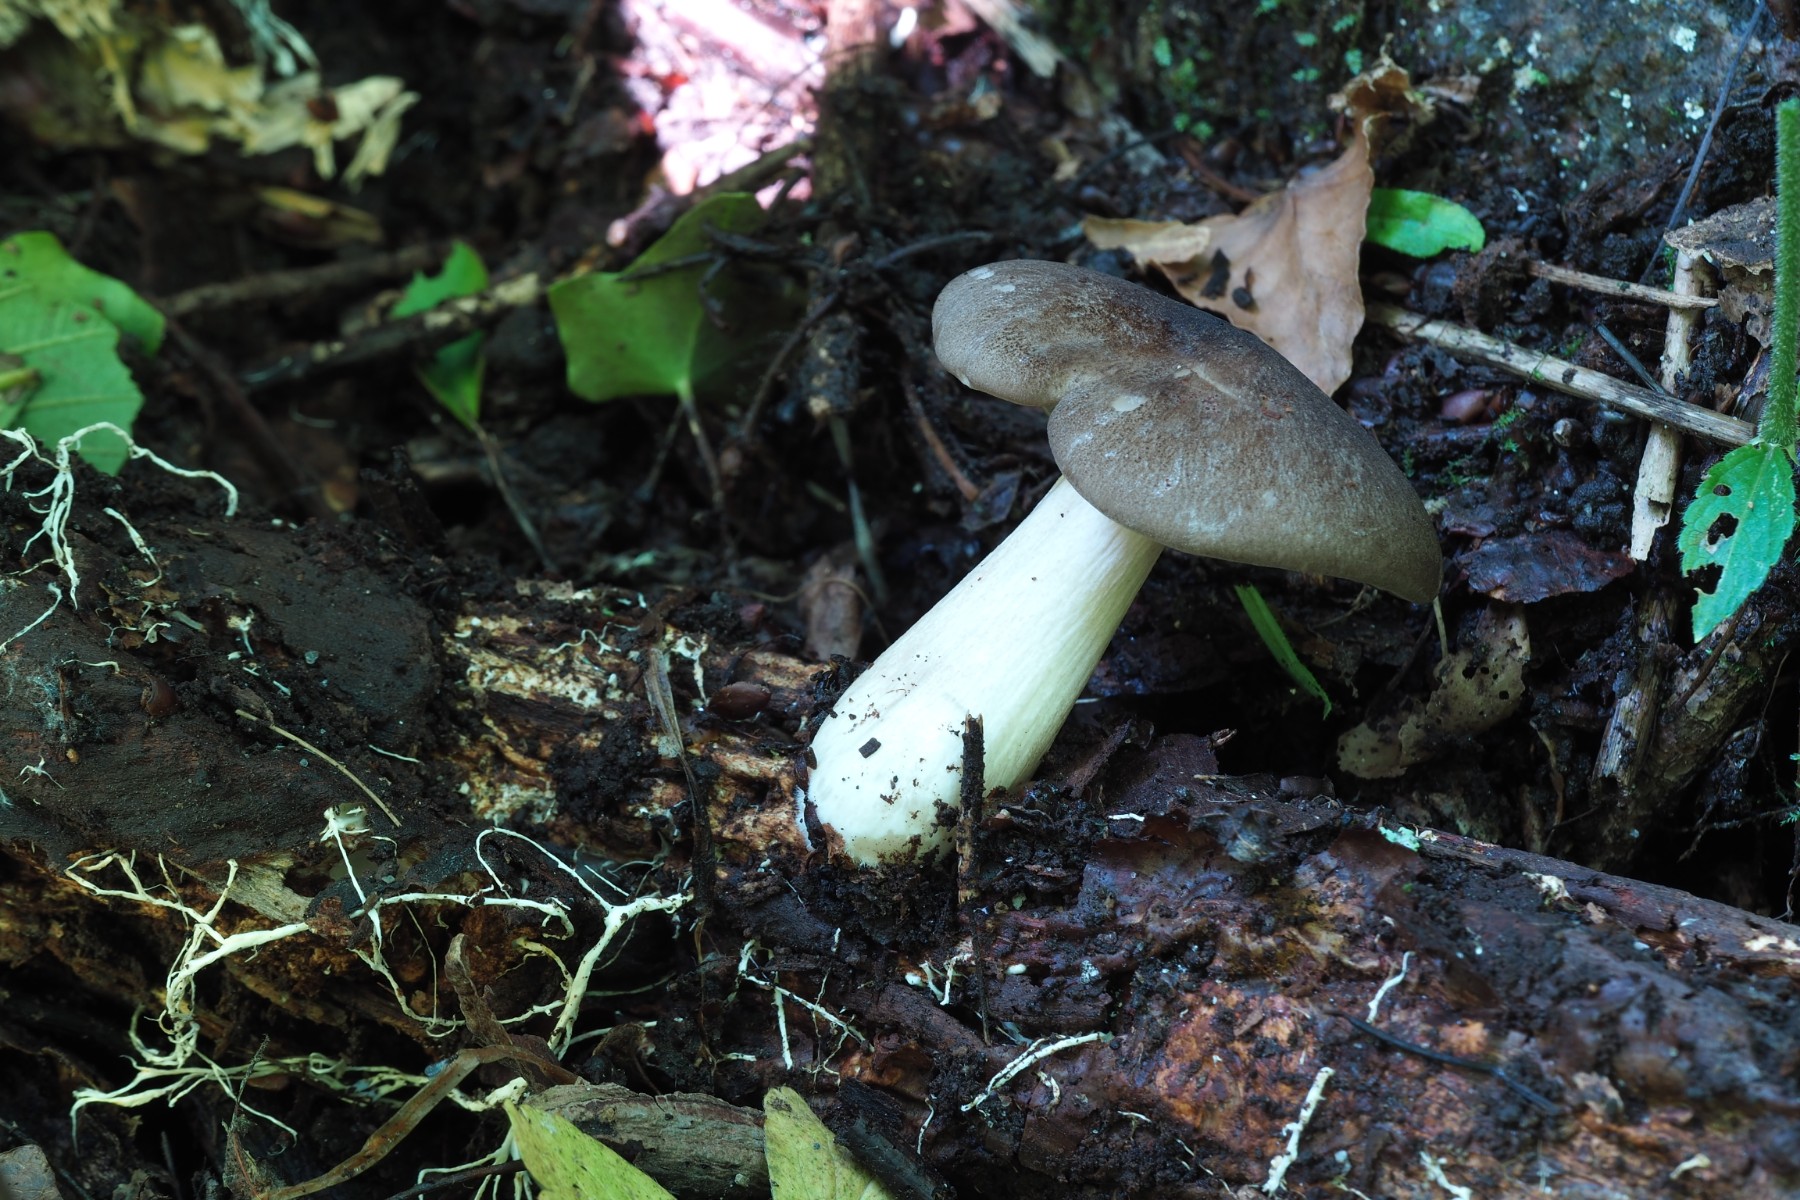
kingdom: Fungi
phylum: Basidiomycota
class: Agaricomycetes
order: Agaricales
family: Tricholomataceae
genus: Megacollybia
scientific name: Megacollybia platyphylla
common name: bredbladet væbnerhat
